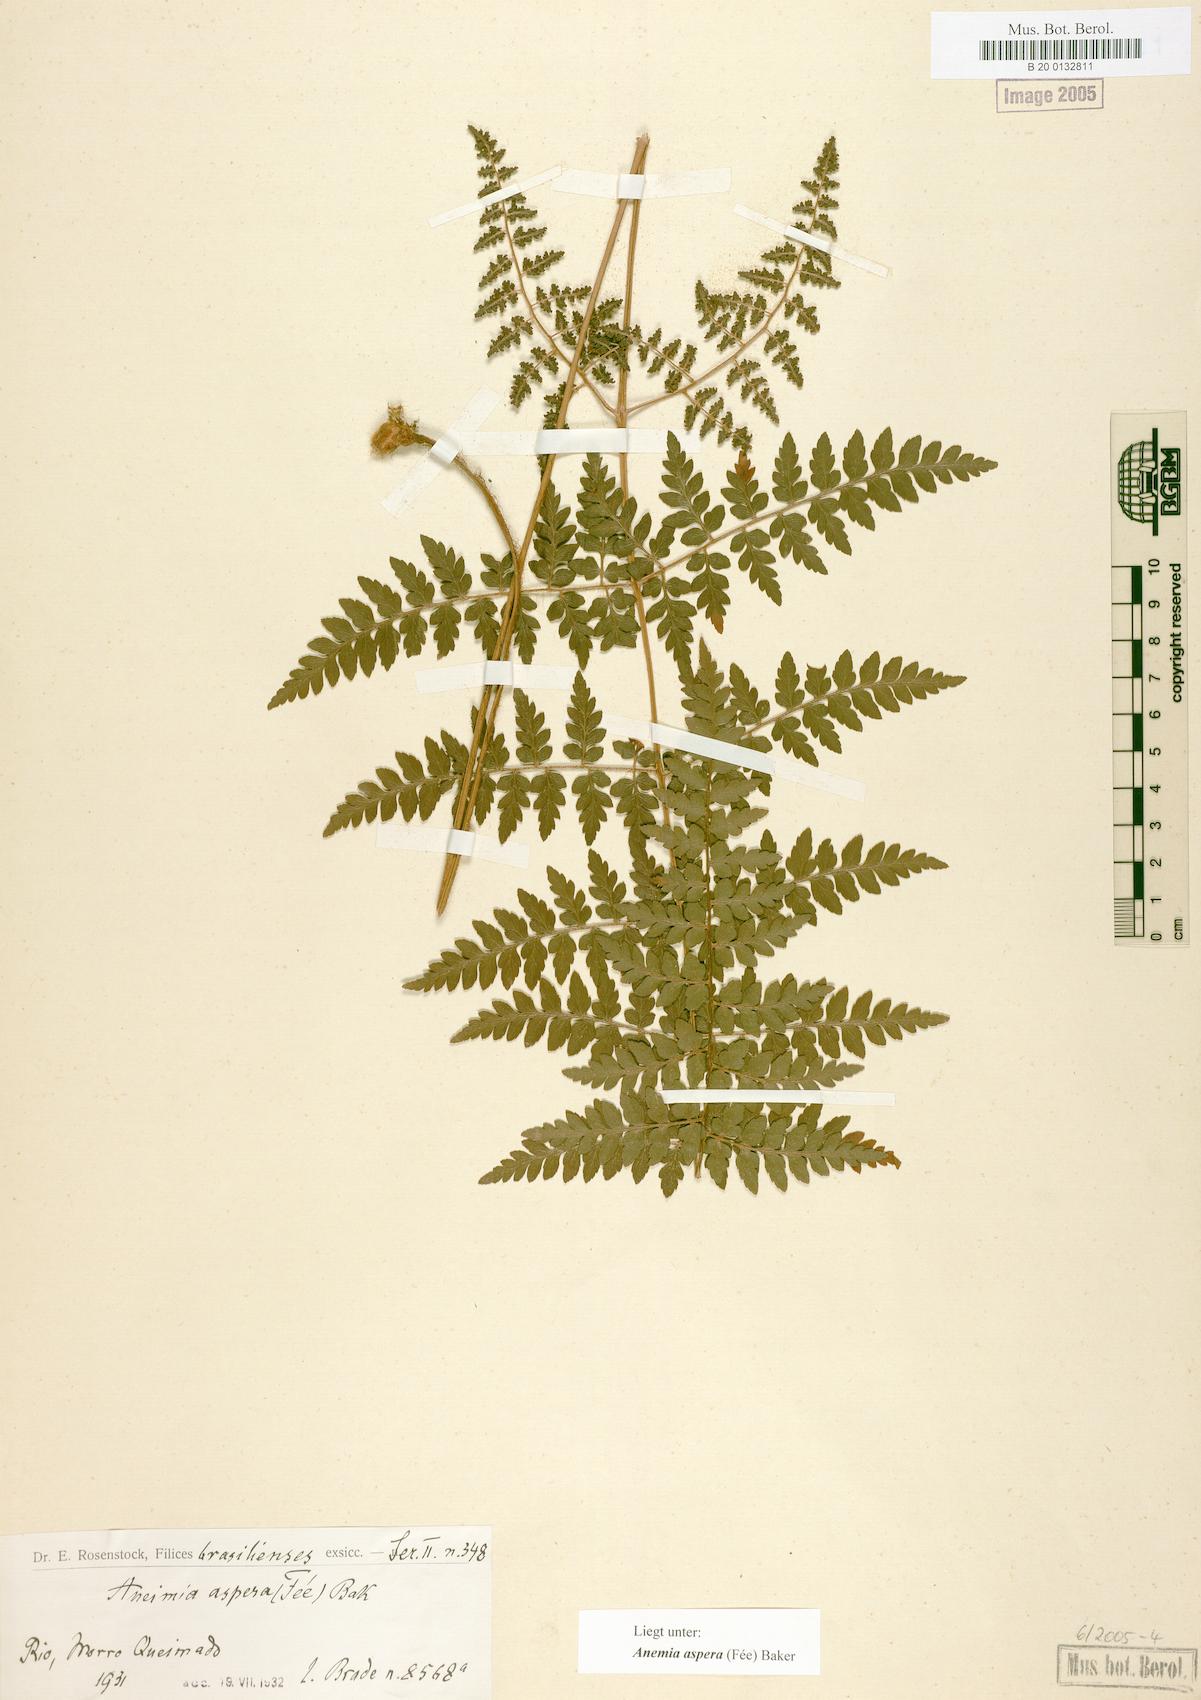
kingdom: Plantae
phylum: Tracheophyta
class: Polypodiopsida
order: Schizaeales
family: Anemiaceae
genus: Anemia
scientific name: Anemia aspera
